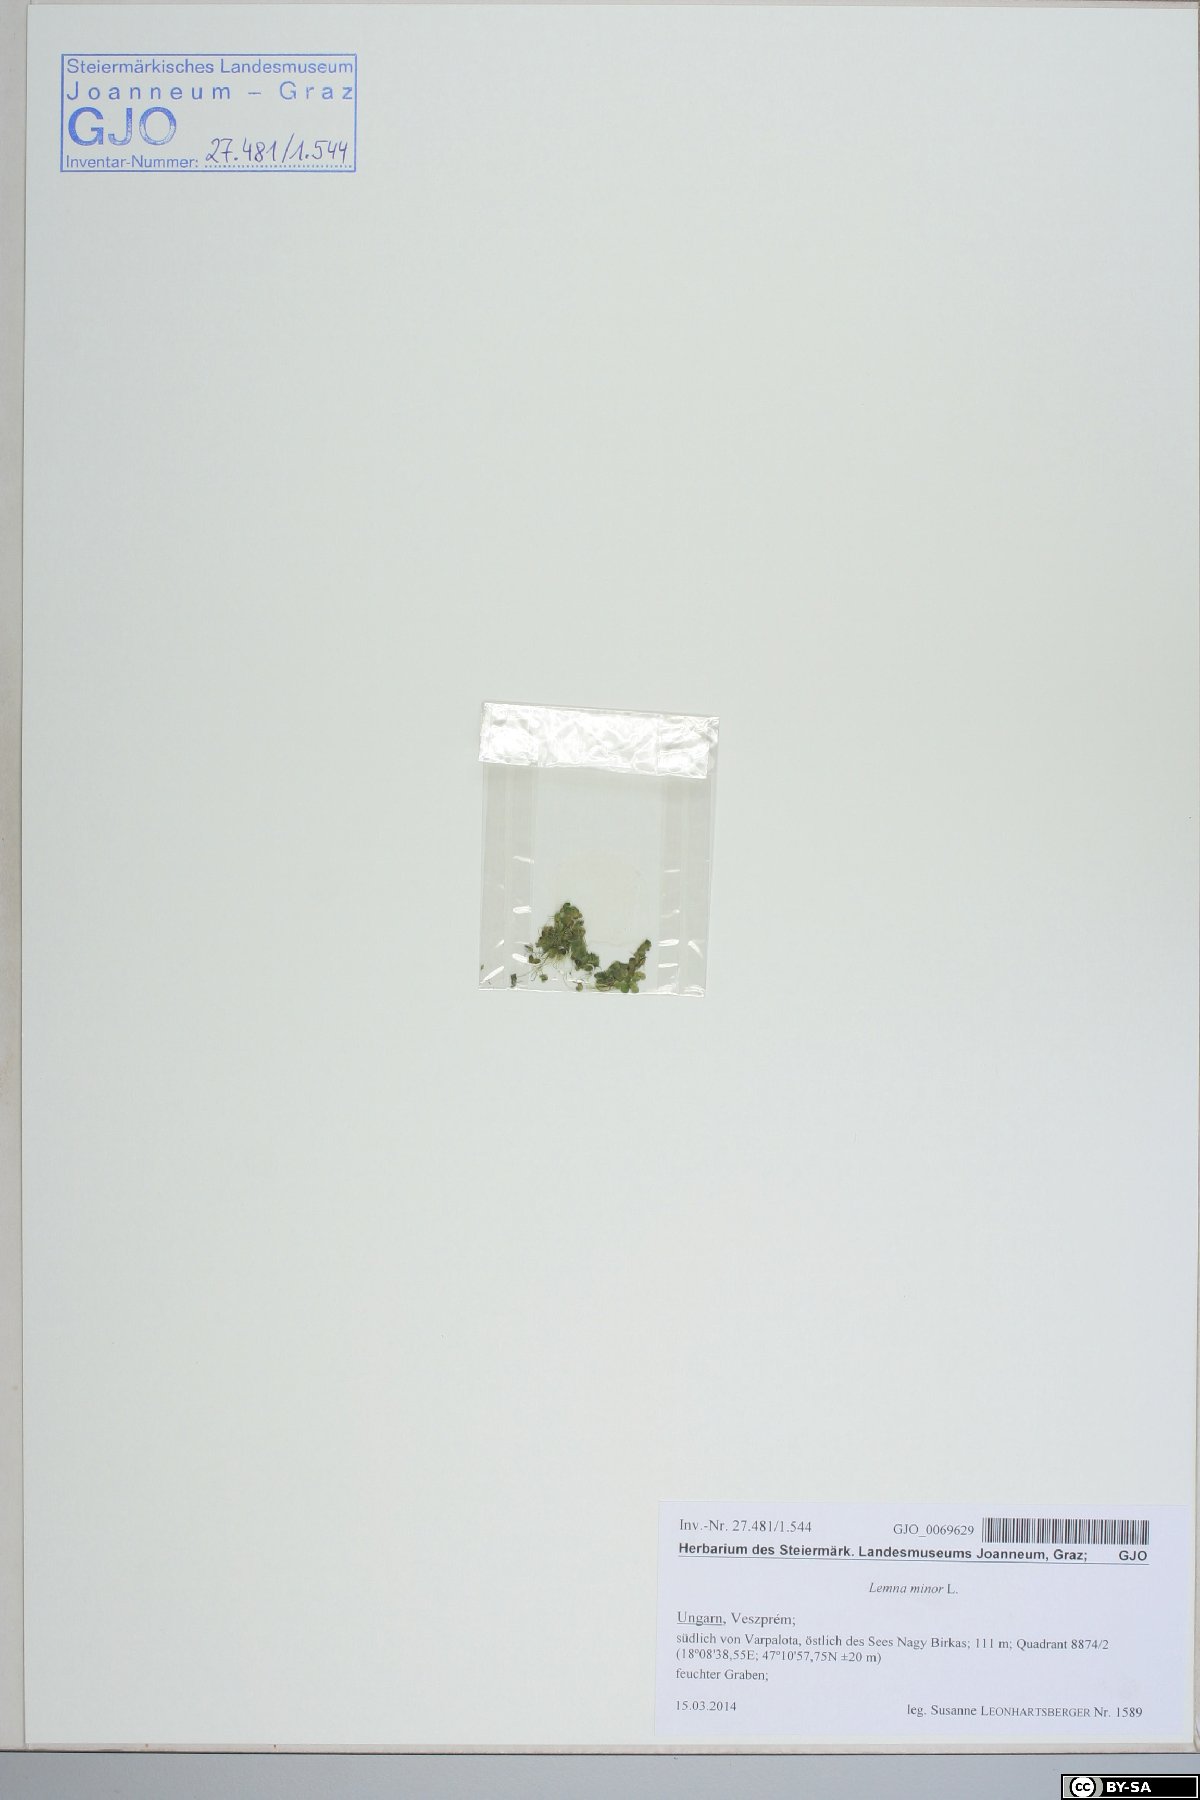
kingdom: Plantae
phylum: Tracheophyta
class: Liliopsida
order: Alismatales
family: Araceae
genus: Lemna
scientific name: Lemna minor
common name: Common duckweed
